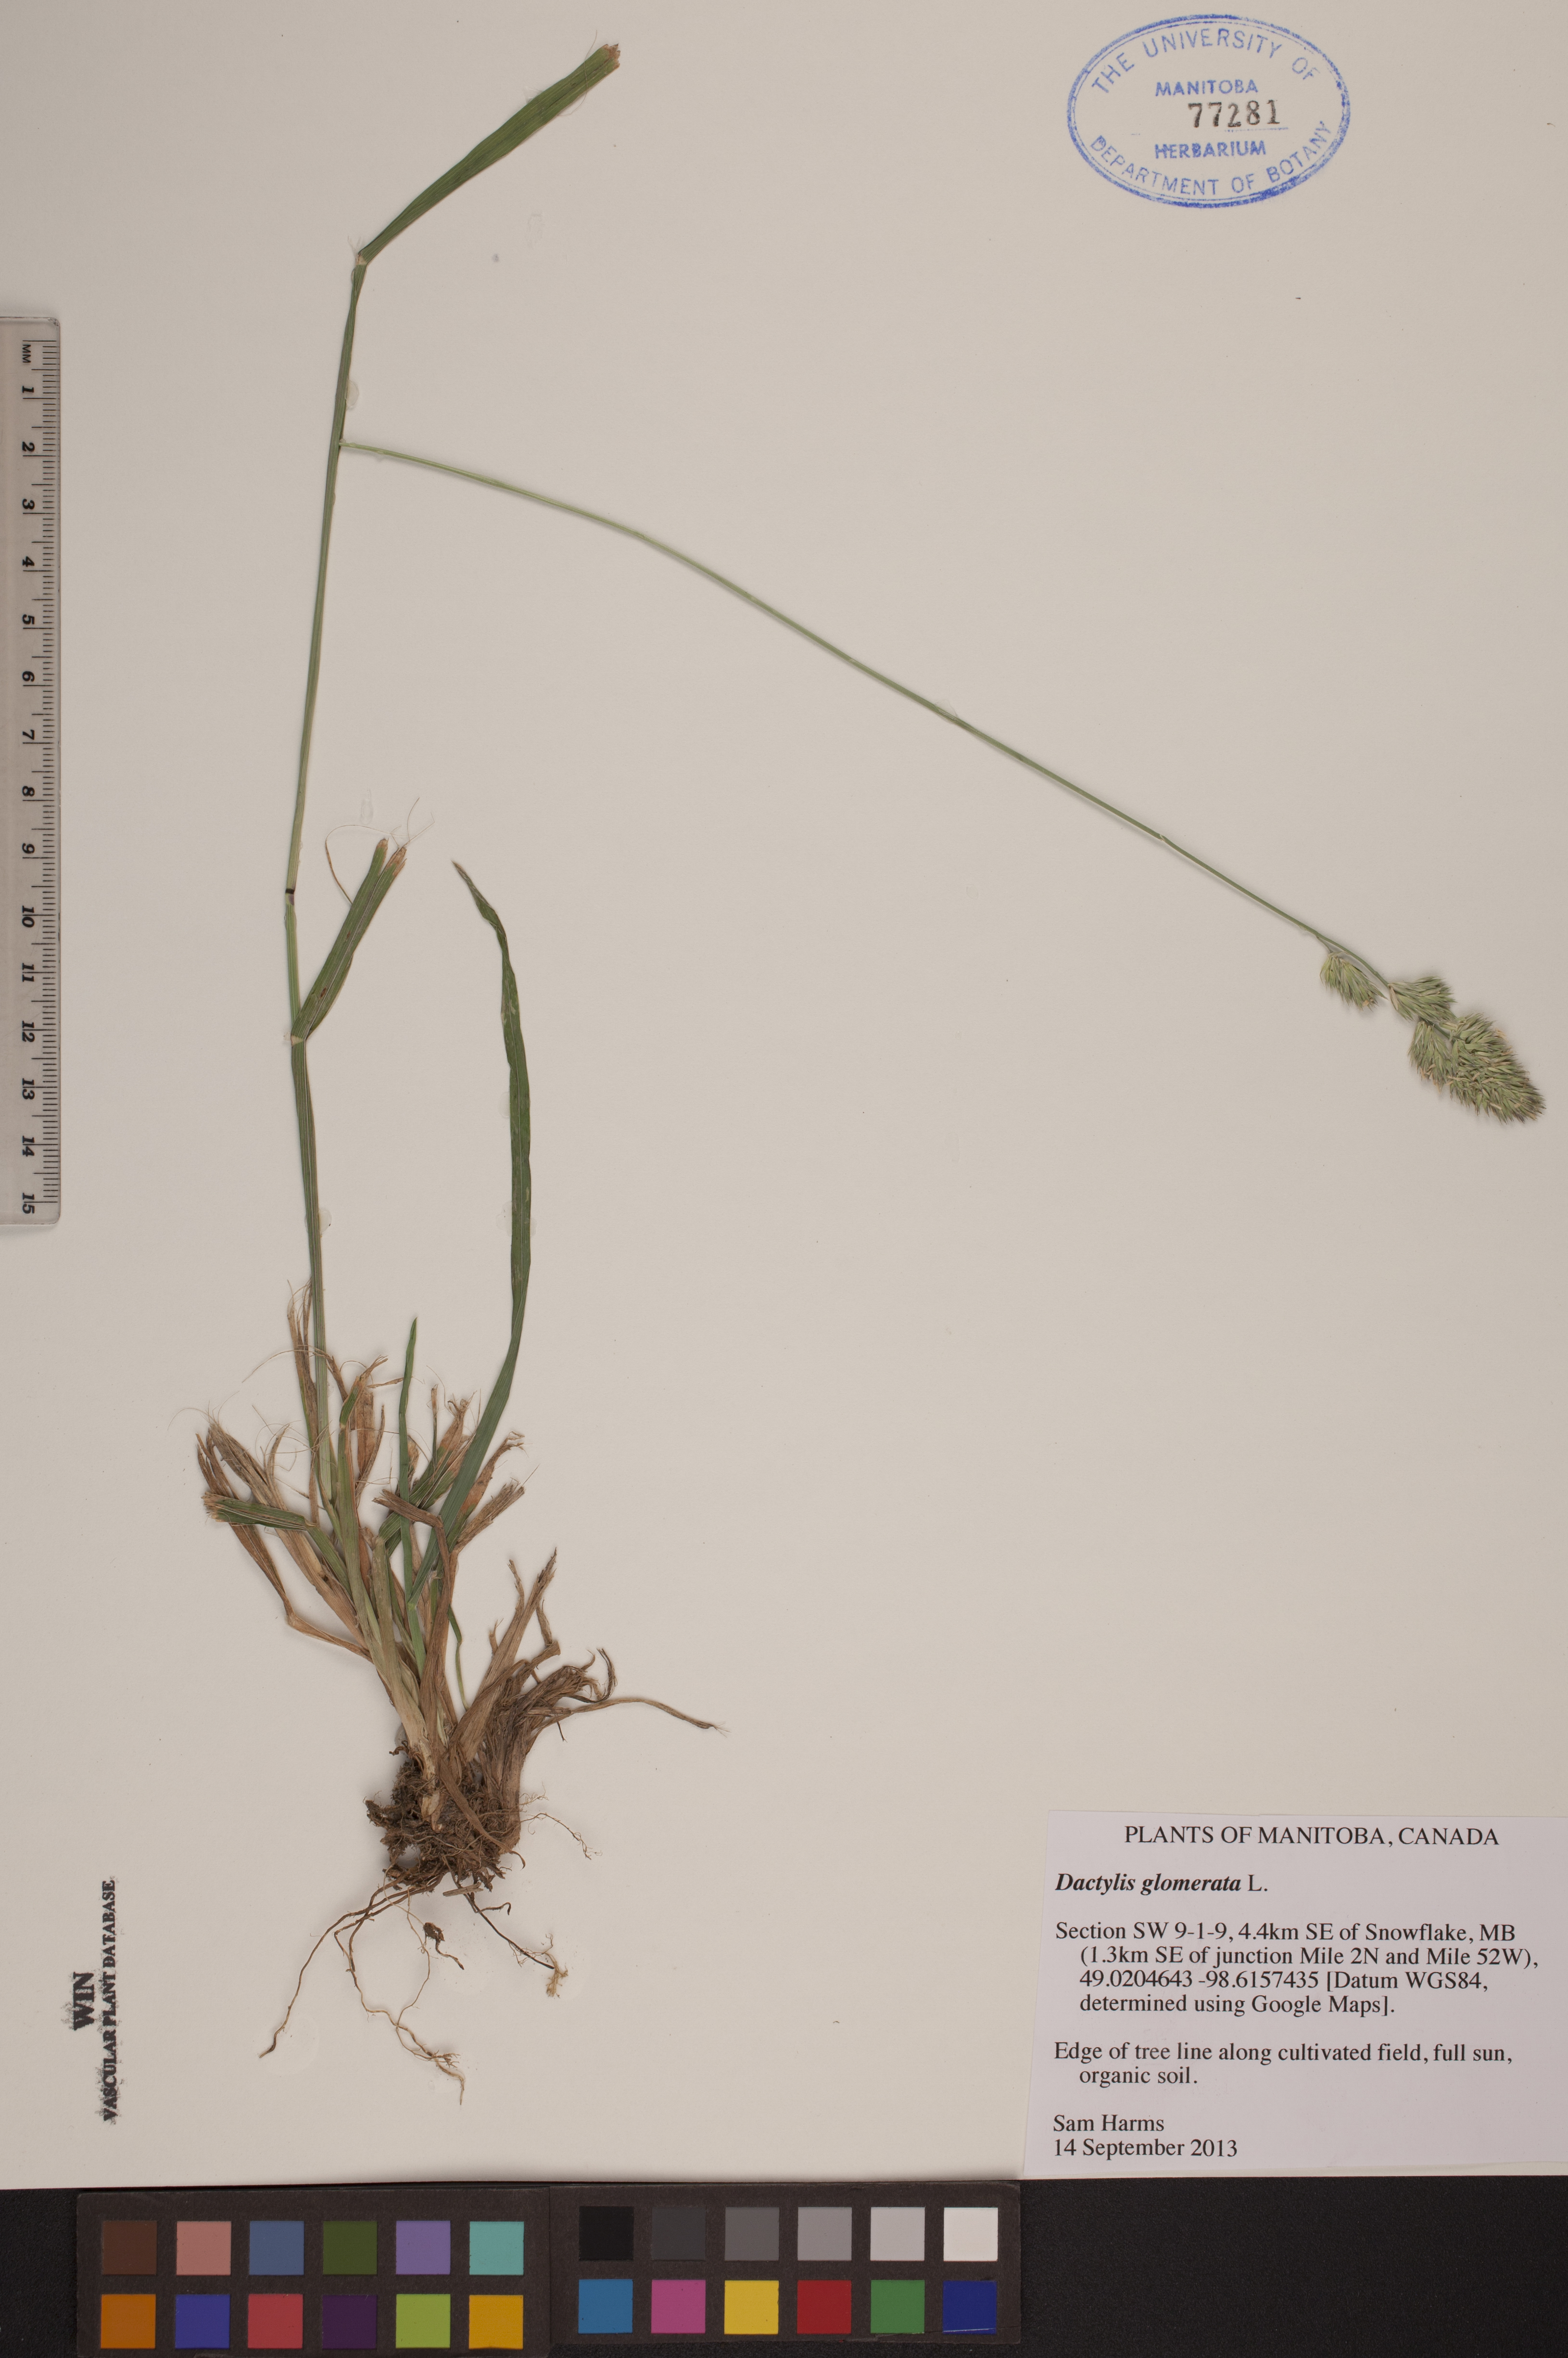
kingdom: Plantae
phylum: Tracheophyta
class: Liliopsida
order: Poales
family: Poaceae
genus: Dactylis
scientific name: Dactylis glomerata
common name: Orchardgrass
